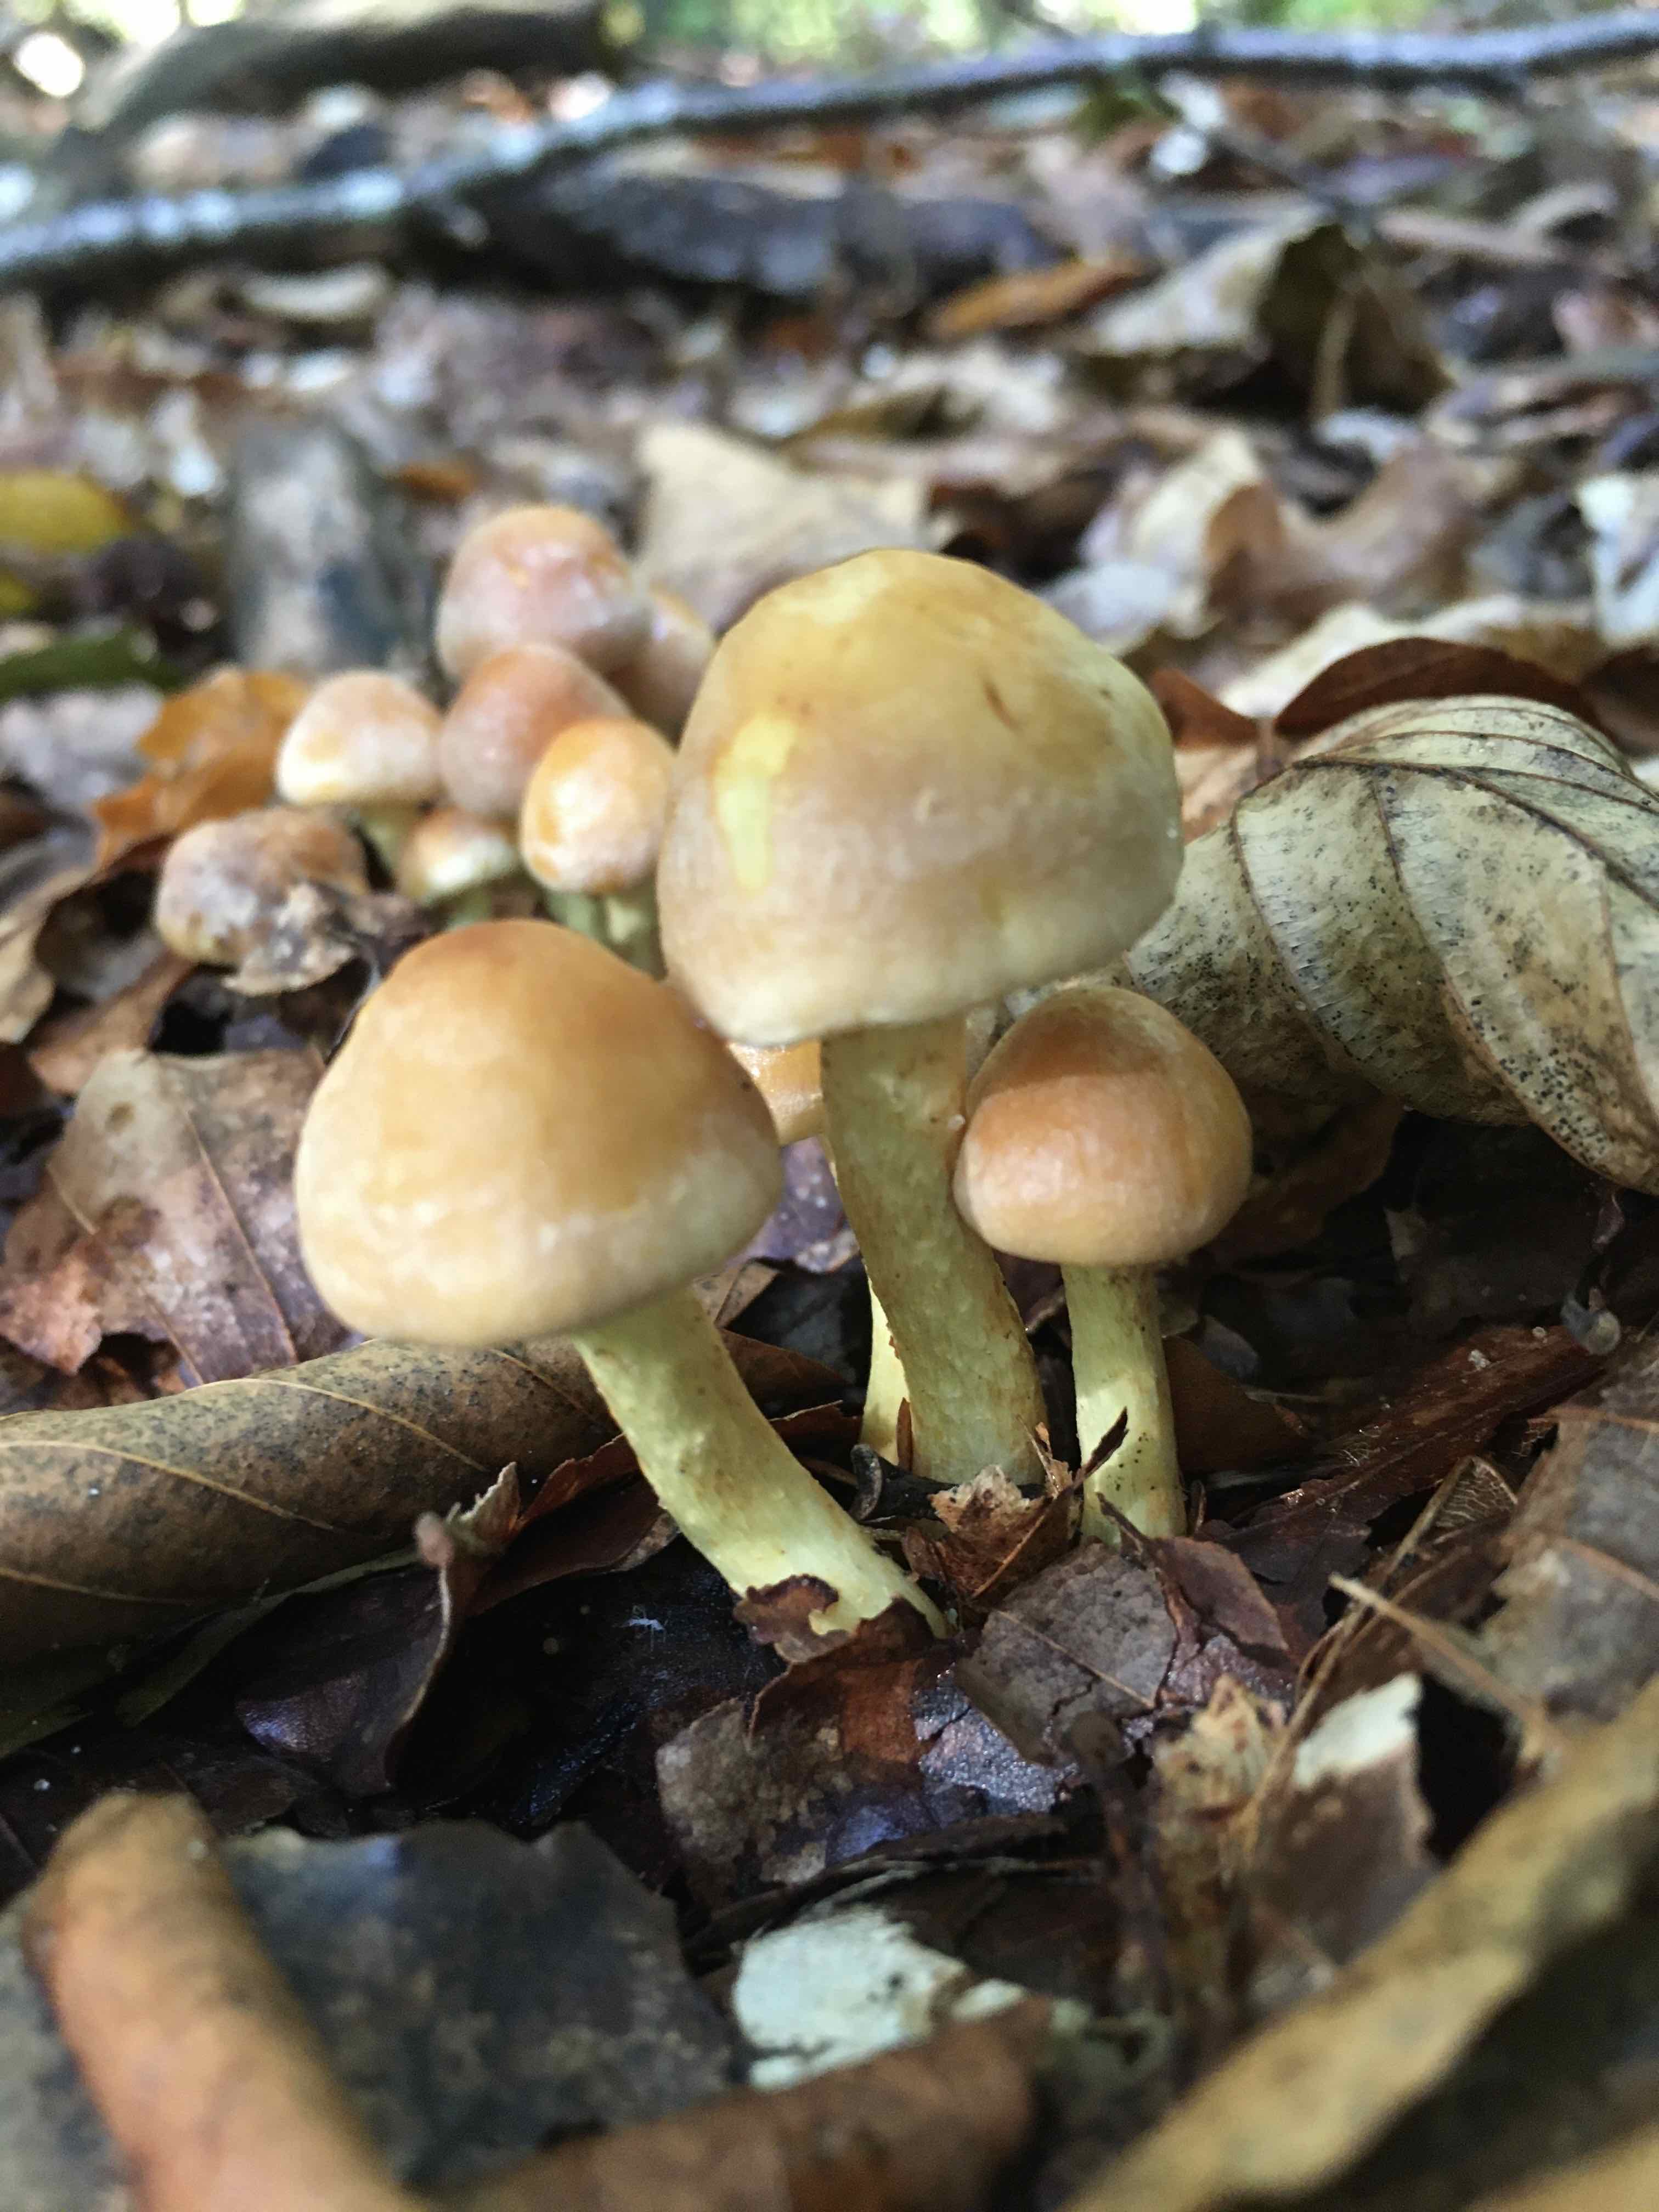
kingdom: Fungi
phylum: Basidiomycota
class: Agaricomycetes
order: Agaricales
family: Strophariaceae
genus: Hypholoma
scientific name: Hypholoma fasciculare
